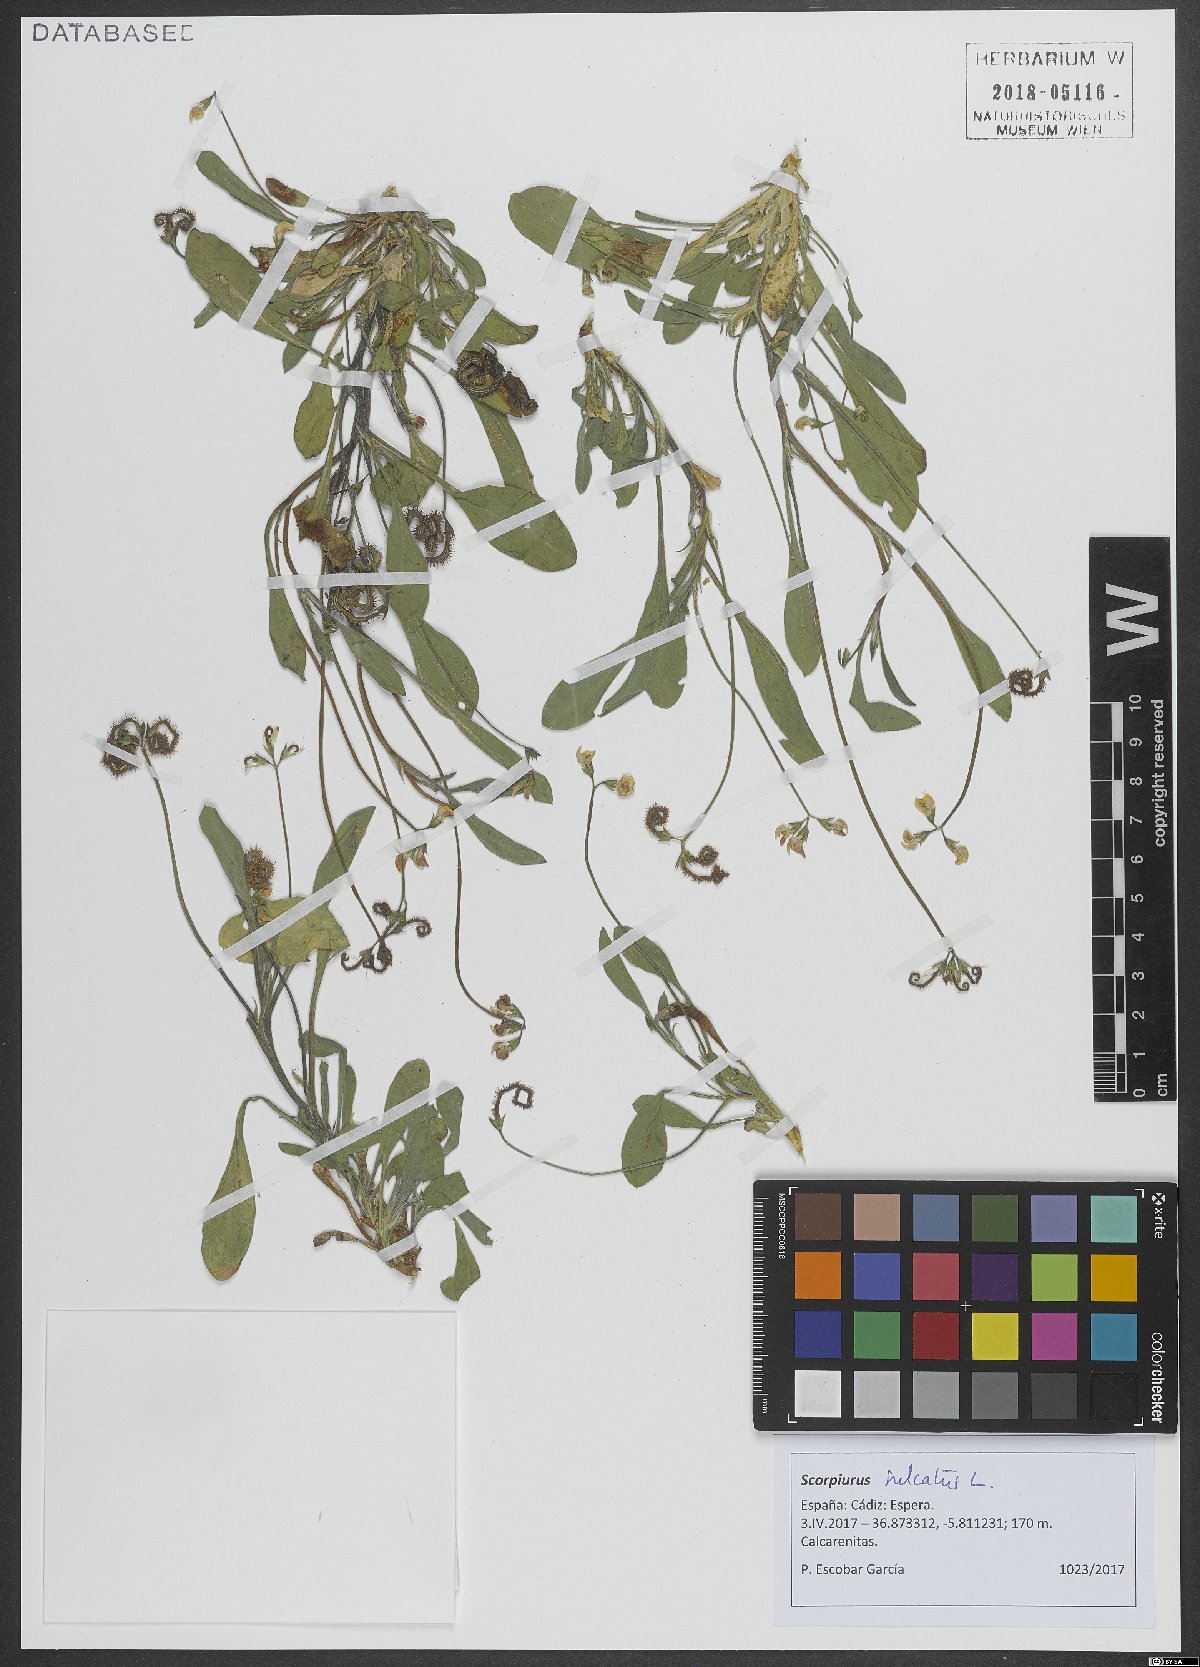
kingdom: Plantae
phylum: Tracheophyta
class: Magnoliopsida
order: Fabales
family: Fabaceae
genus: Scorpiurus
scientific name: Scorpiurus muricatus
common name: Caterpillar-plant
